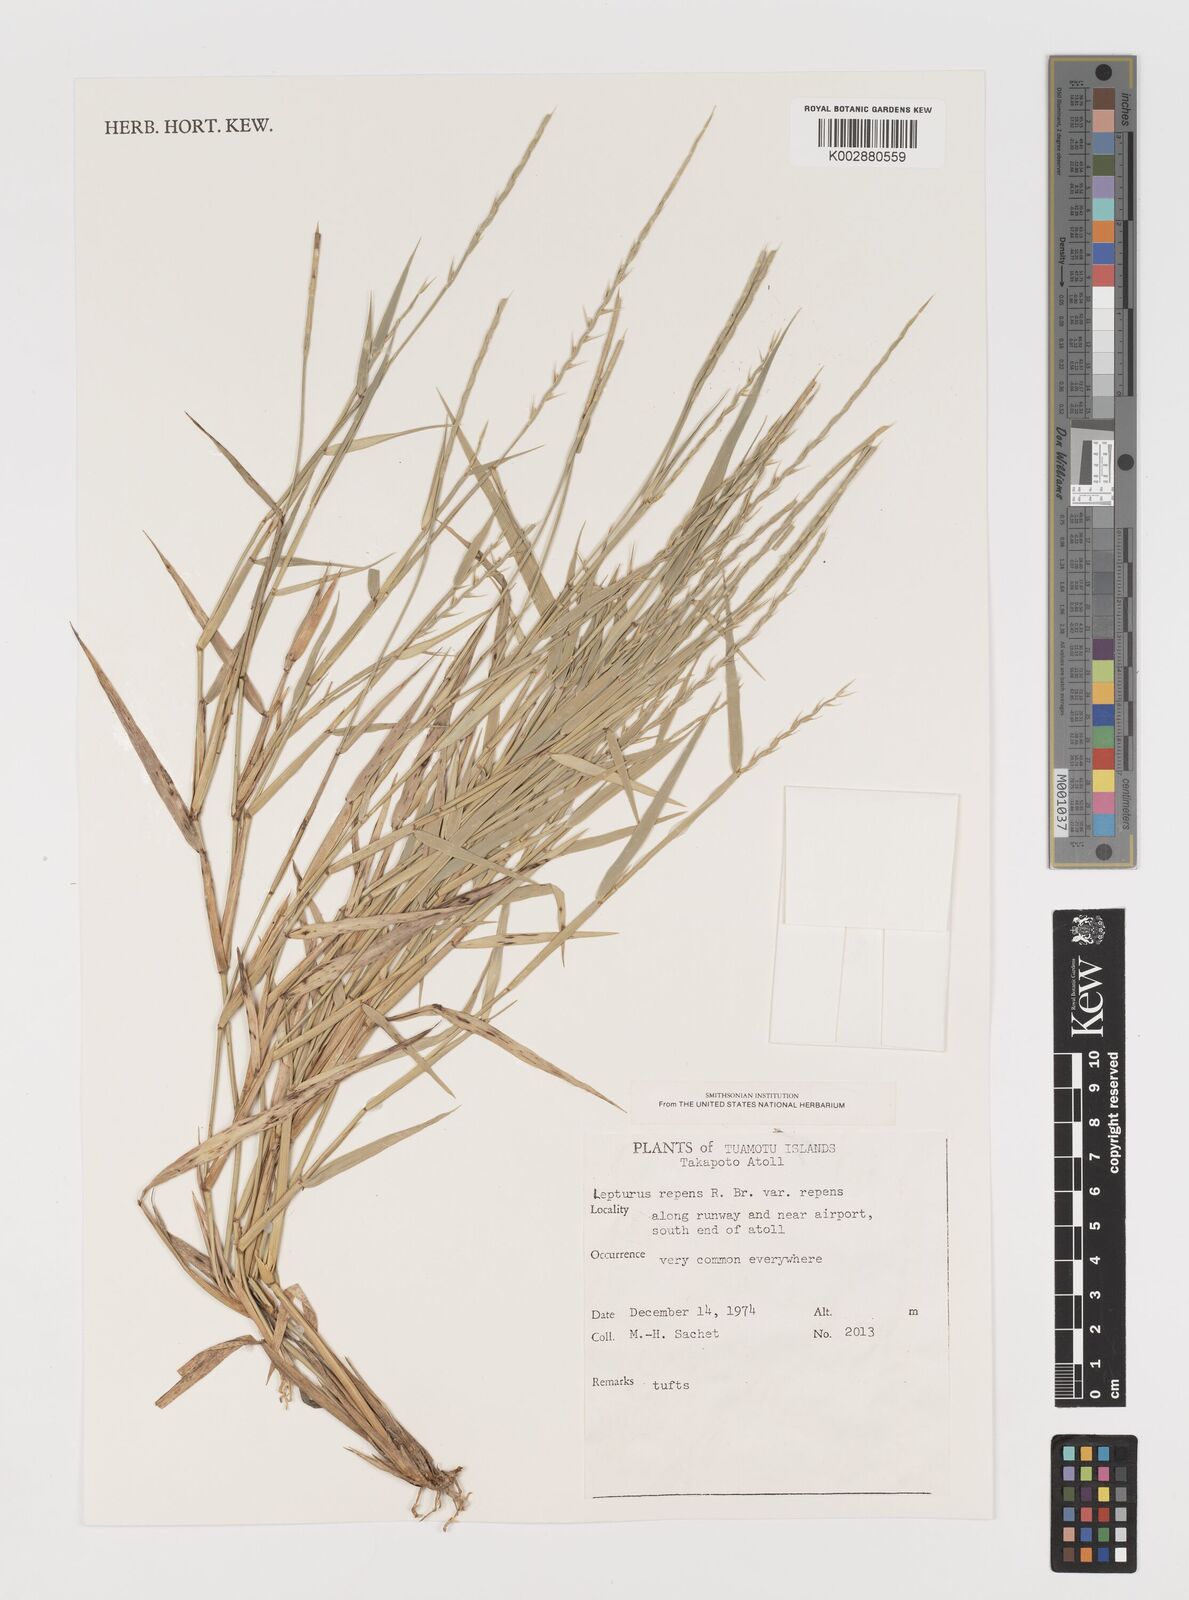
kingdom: Plantae
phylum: Tracheophyta
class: Liliopsida
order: Poales
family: Poaceae
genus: Lepturus
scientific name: Lepturus repens
